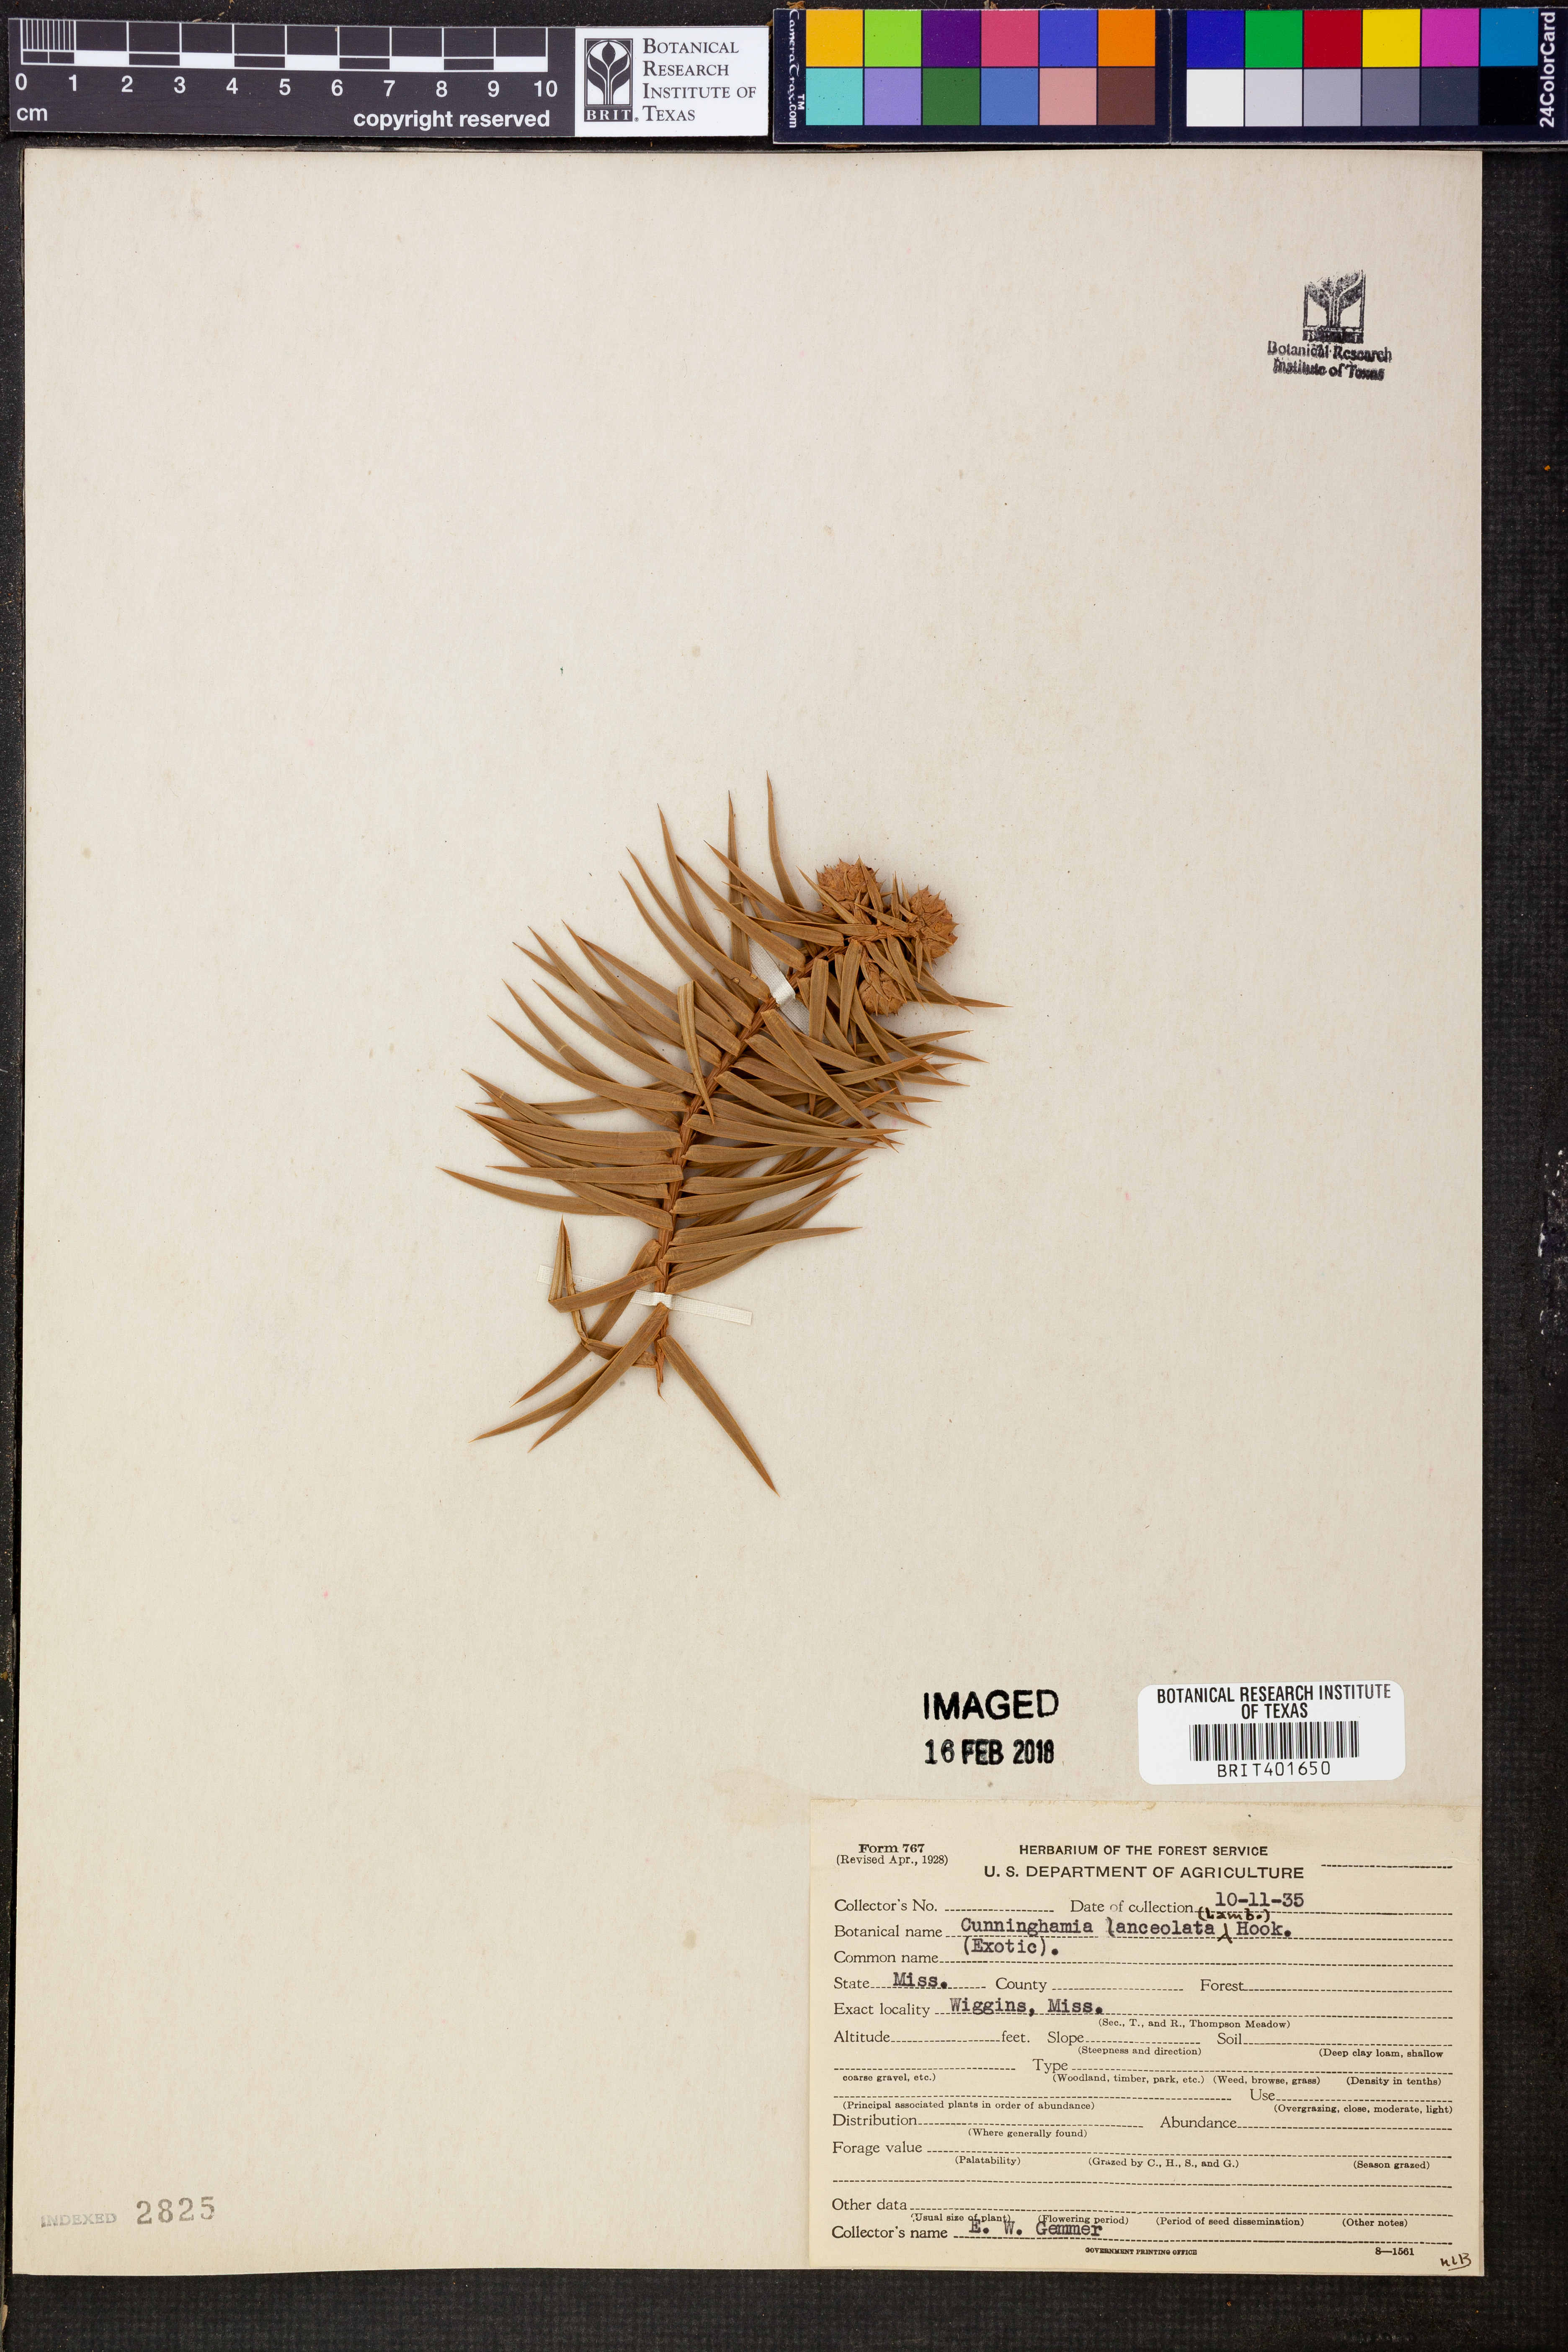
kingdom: Plantae
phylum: Tracheophyta
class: Pinopsida
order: Pinales
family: Cupressaceae
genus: Cunninghamia
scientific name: Cunninghamia lanceolata
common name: Chinese fir
